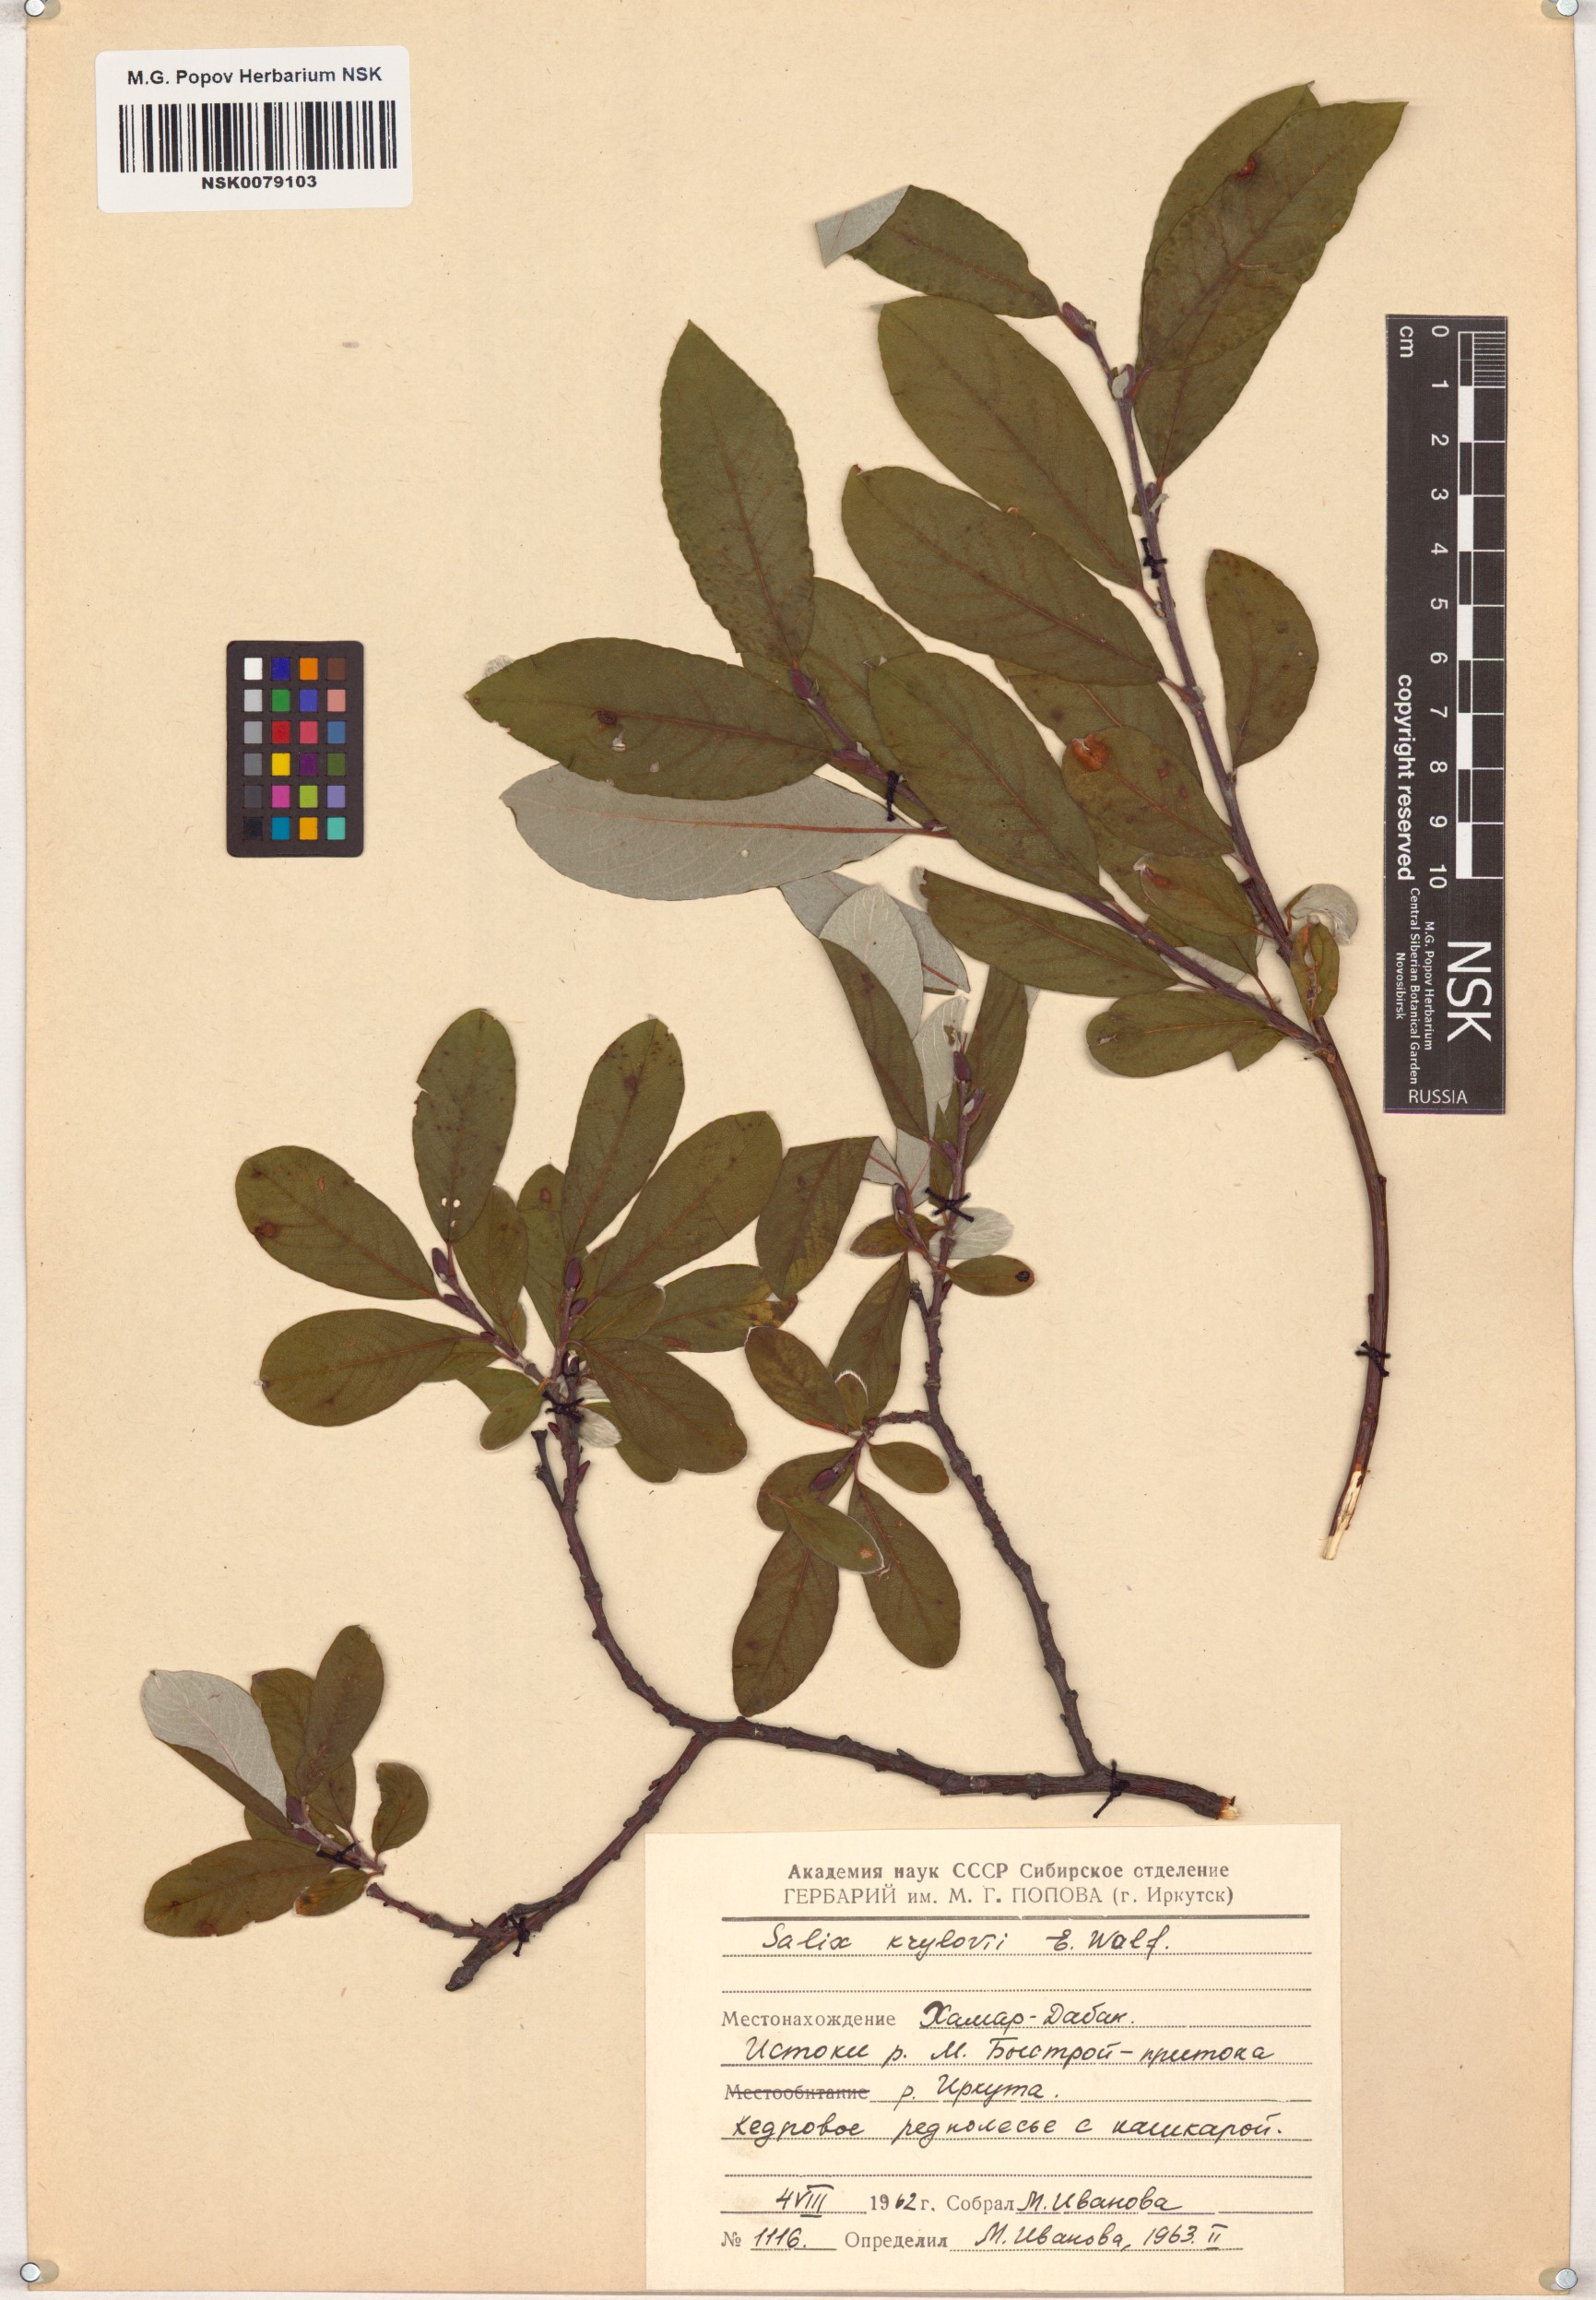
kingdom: Plantae
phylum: Tracheophyta
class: Magnoliopsida
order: Malpighiales
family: Salicaceae
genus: Salix
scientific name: Salix krylovii
